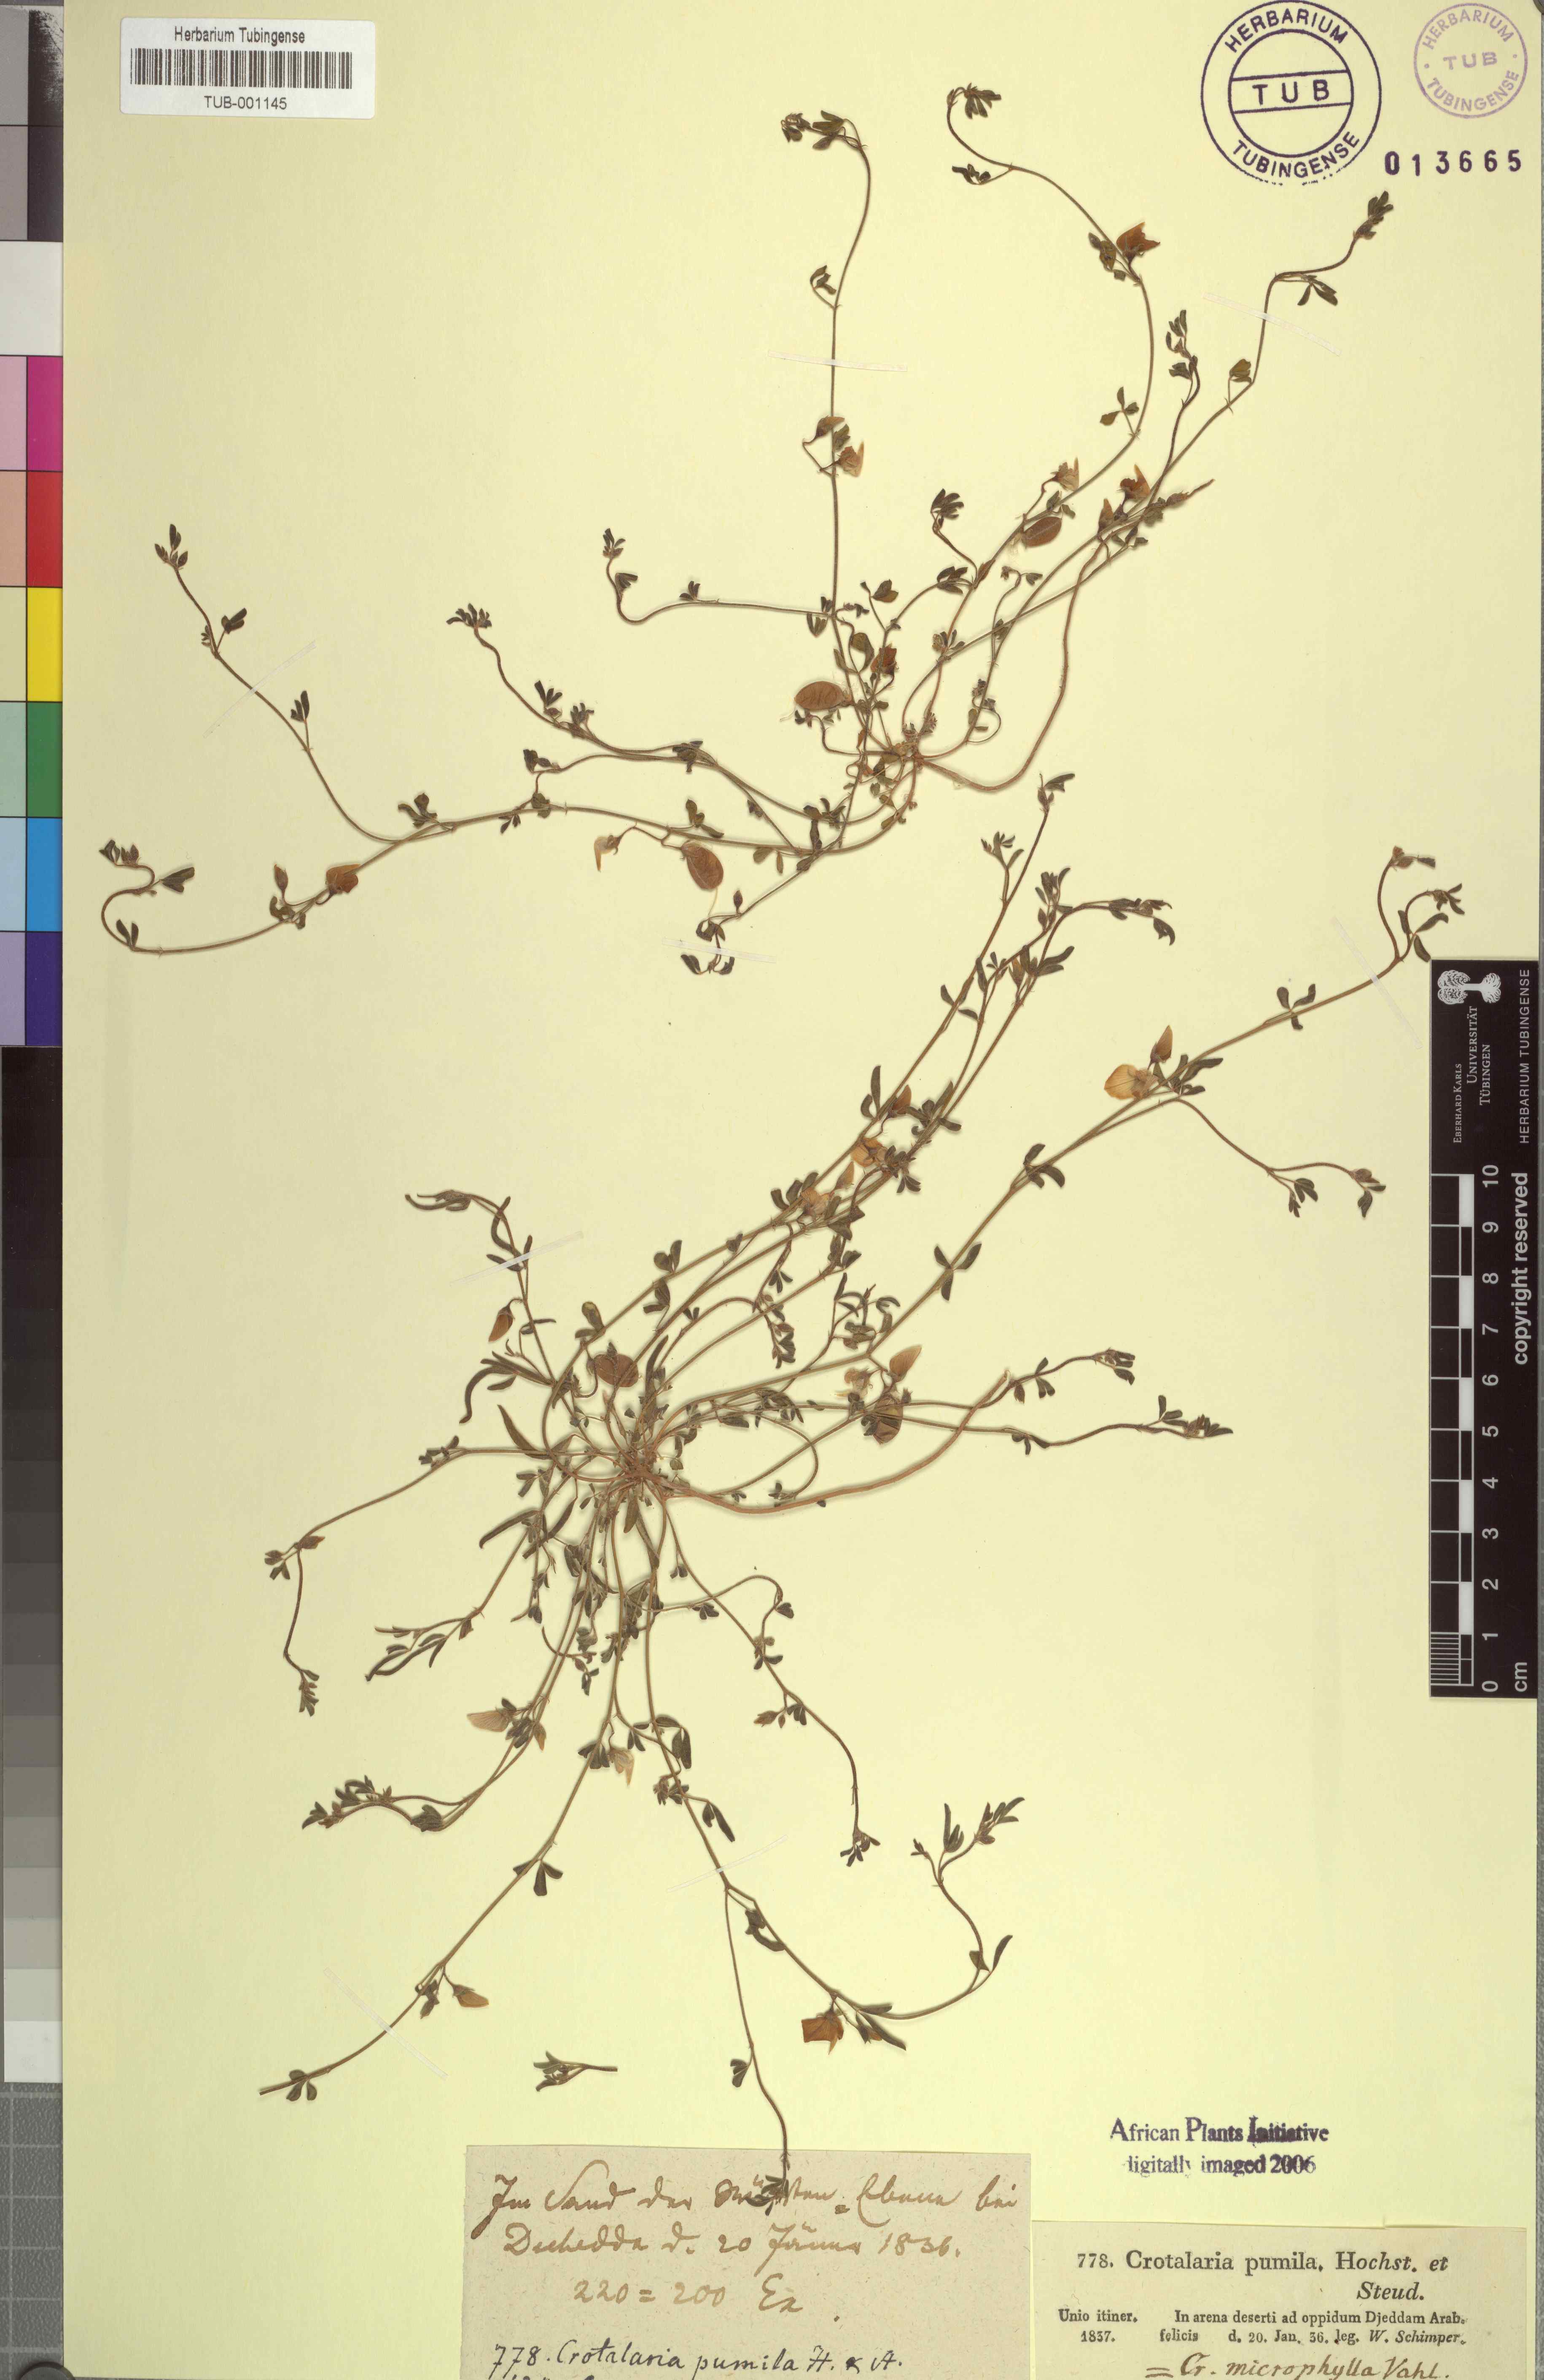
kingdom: Plantae
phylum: Tracheophyta
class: Magnoliopsida
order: Fabales
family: Fabaceae
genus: Crotalaria
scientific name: Crotalaria microphylla
